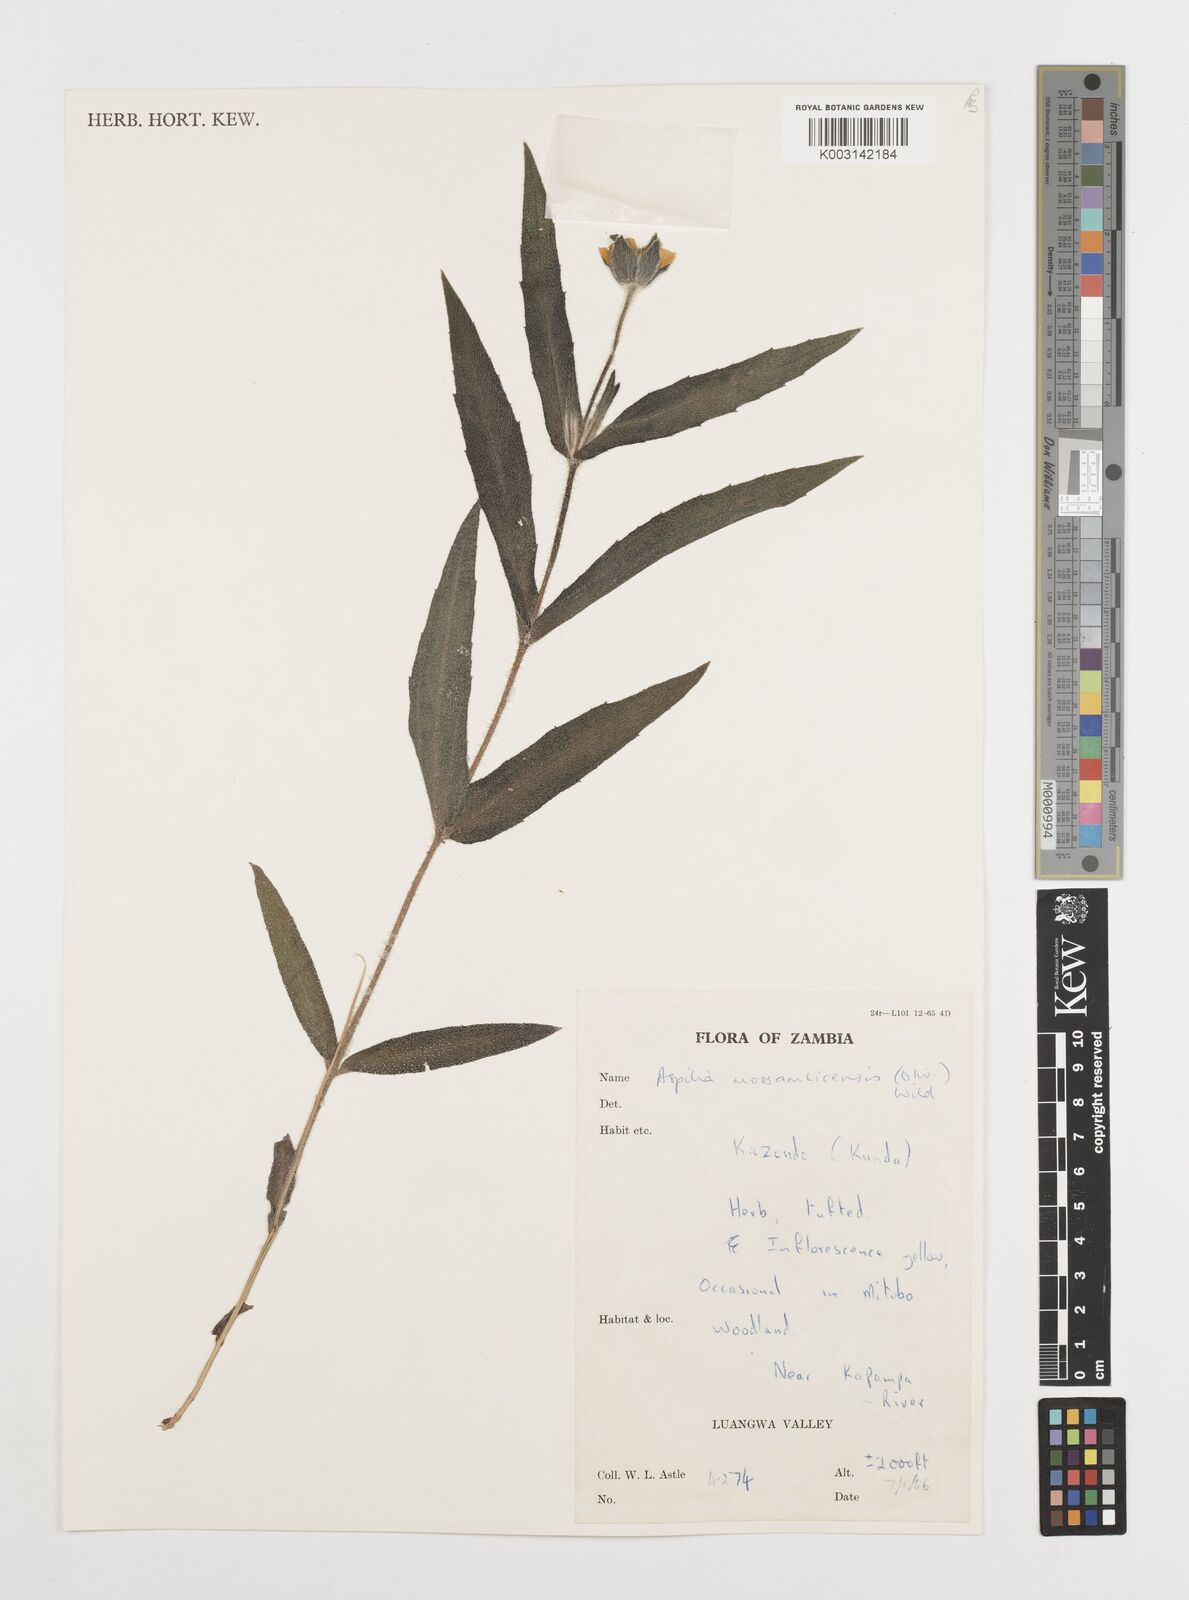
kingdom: Plantae
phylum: Tracheophyta
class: Magnoliopsida
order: Asterales
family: Asteraceae
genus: Aspilia
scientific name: Aspilia mossambicensis
